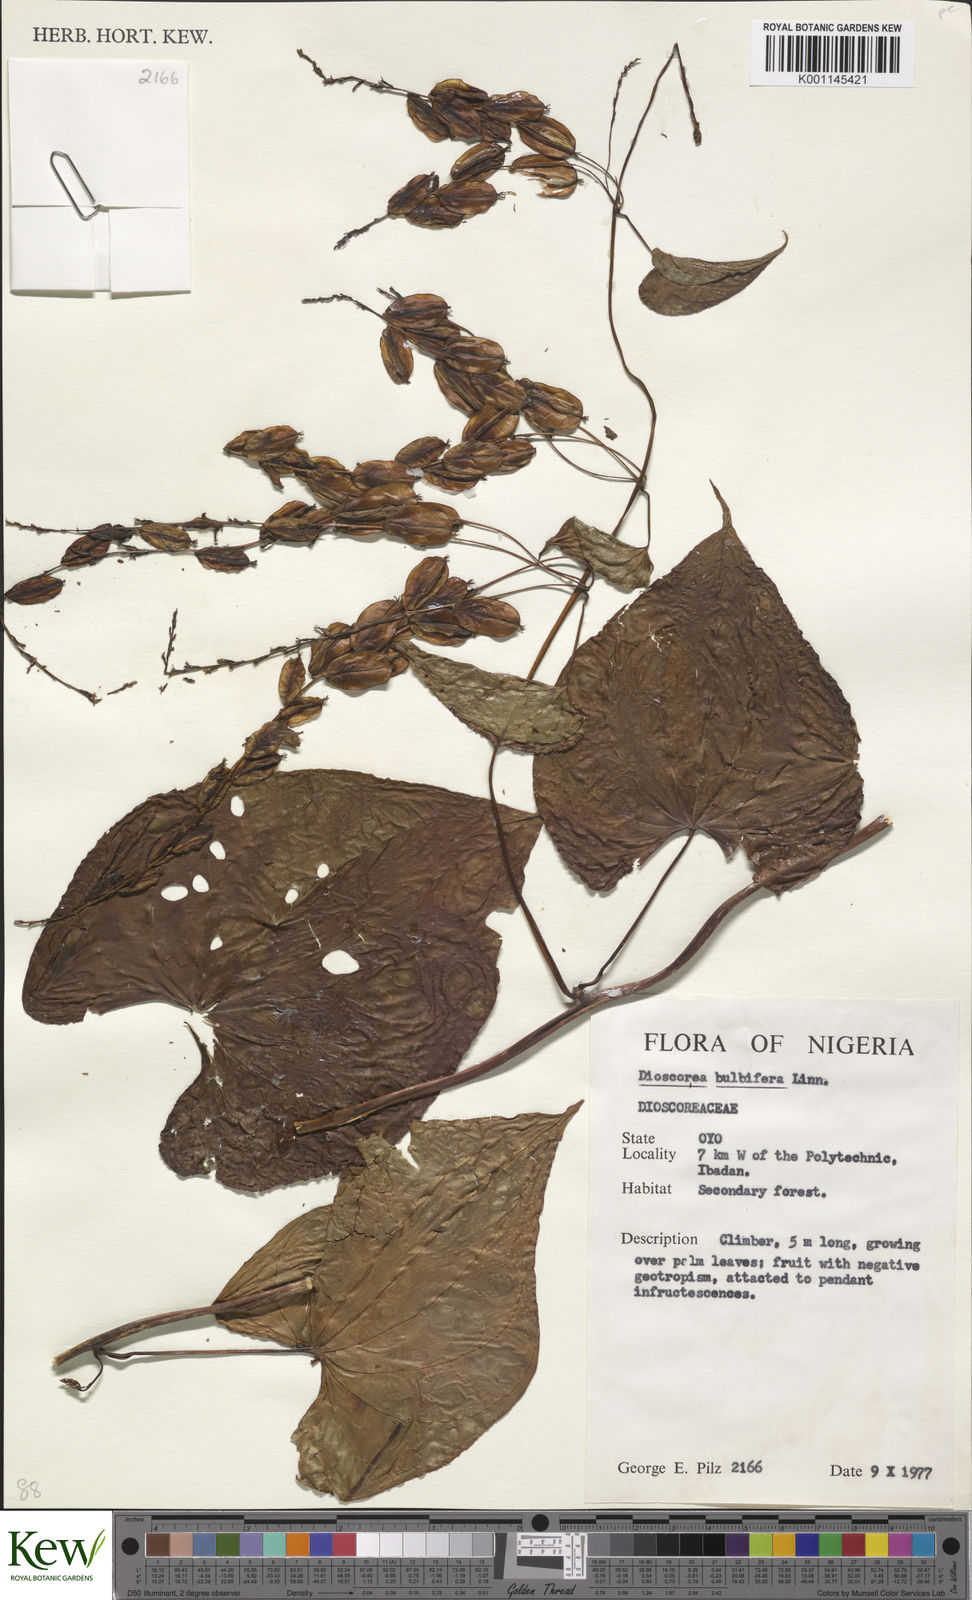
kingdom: Plantae
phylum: Tracheophyta
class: Liliopsida
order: Dioscoreales
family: Dioscoreaceae
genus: Dioscorea
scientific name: Dioscorea bulbifera
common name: Air yam
